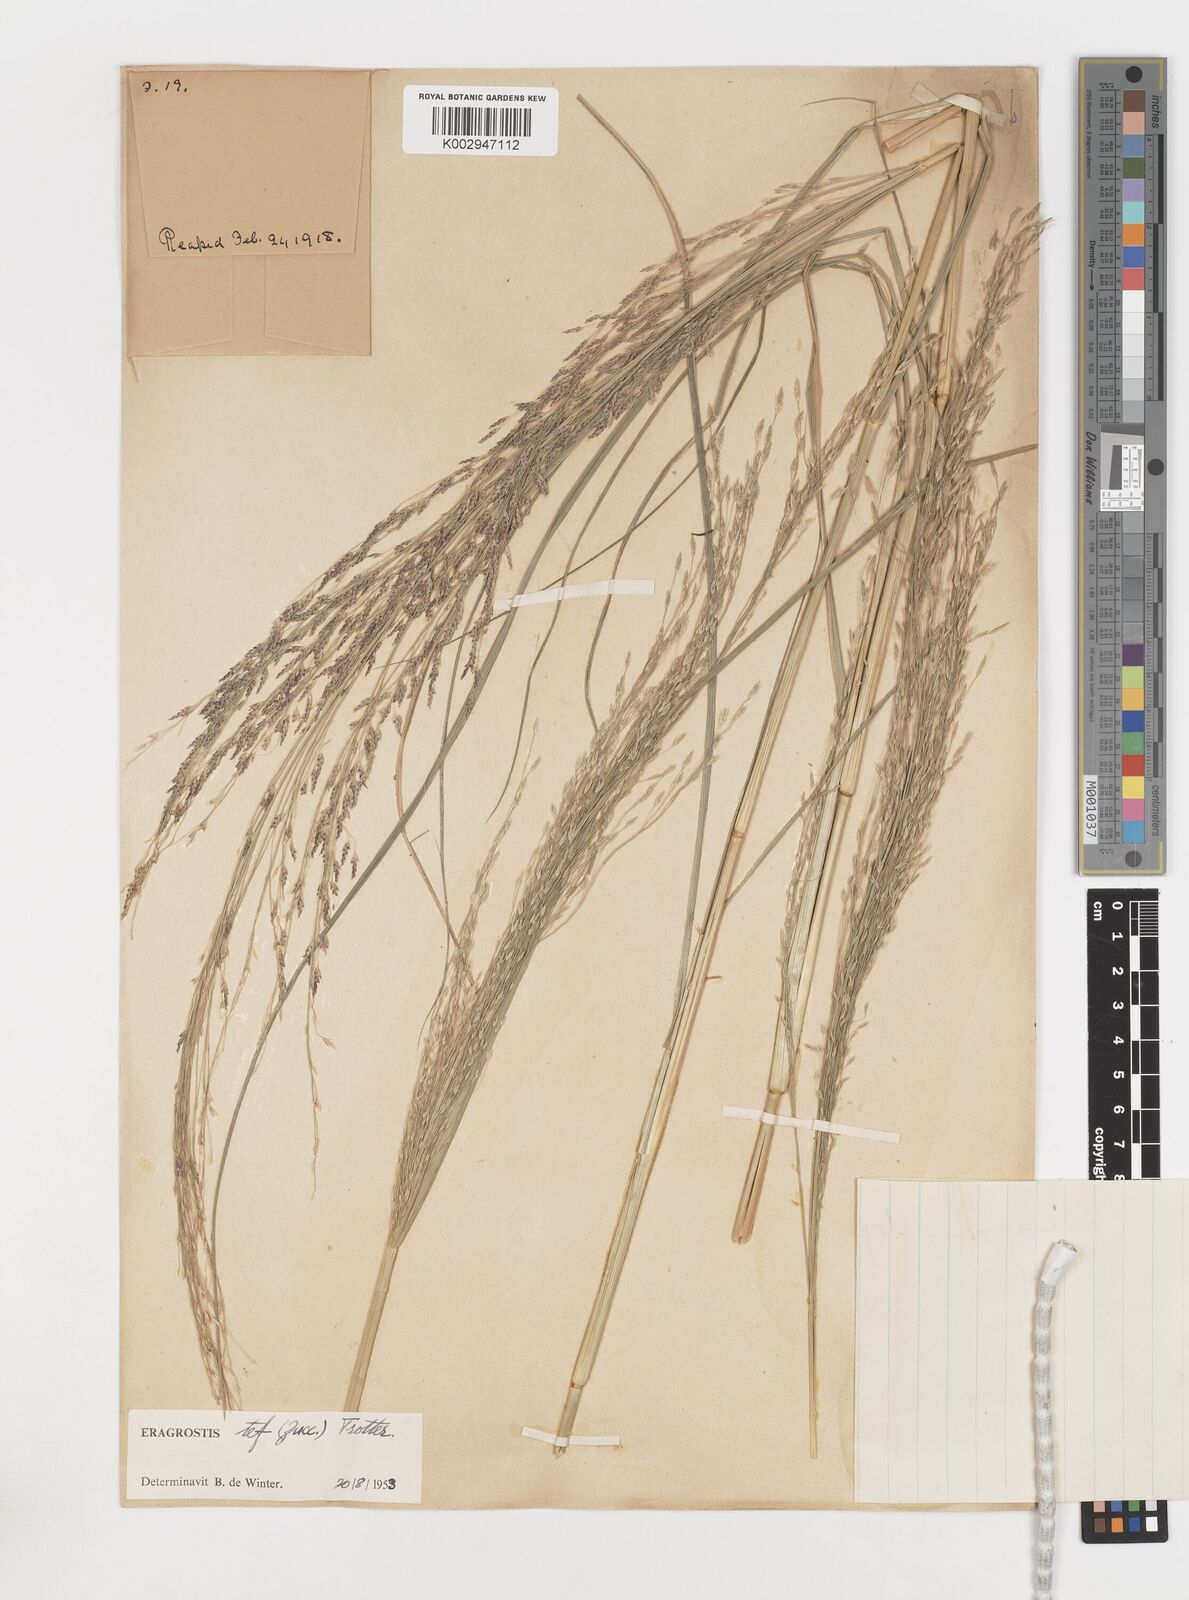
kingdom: Plantae
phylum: Tracheophyta
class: Liliopsida
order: Poales
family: Poaceae
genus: Eragrostis
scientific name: Eragrostis tef
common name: Teff
